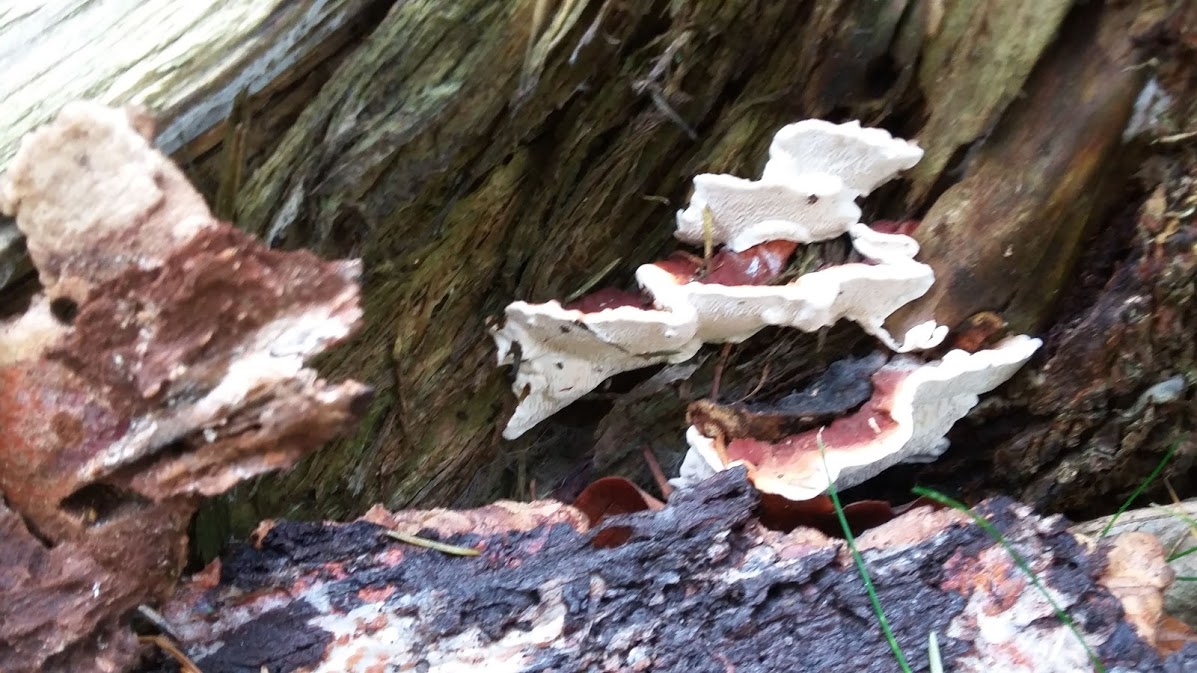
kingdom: Fungi
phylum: Basidiomycota
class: Agaricomycetes
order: Russulales
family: Bondarzewiaceae
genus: Heterobasidion
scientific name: Heterobasidion
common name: rodfordærver
